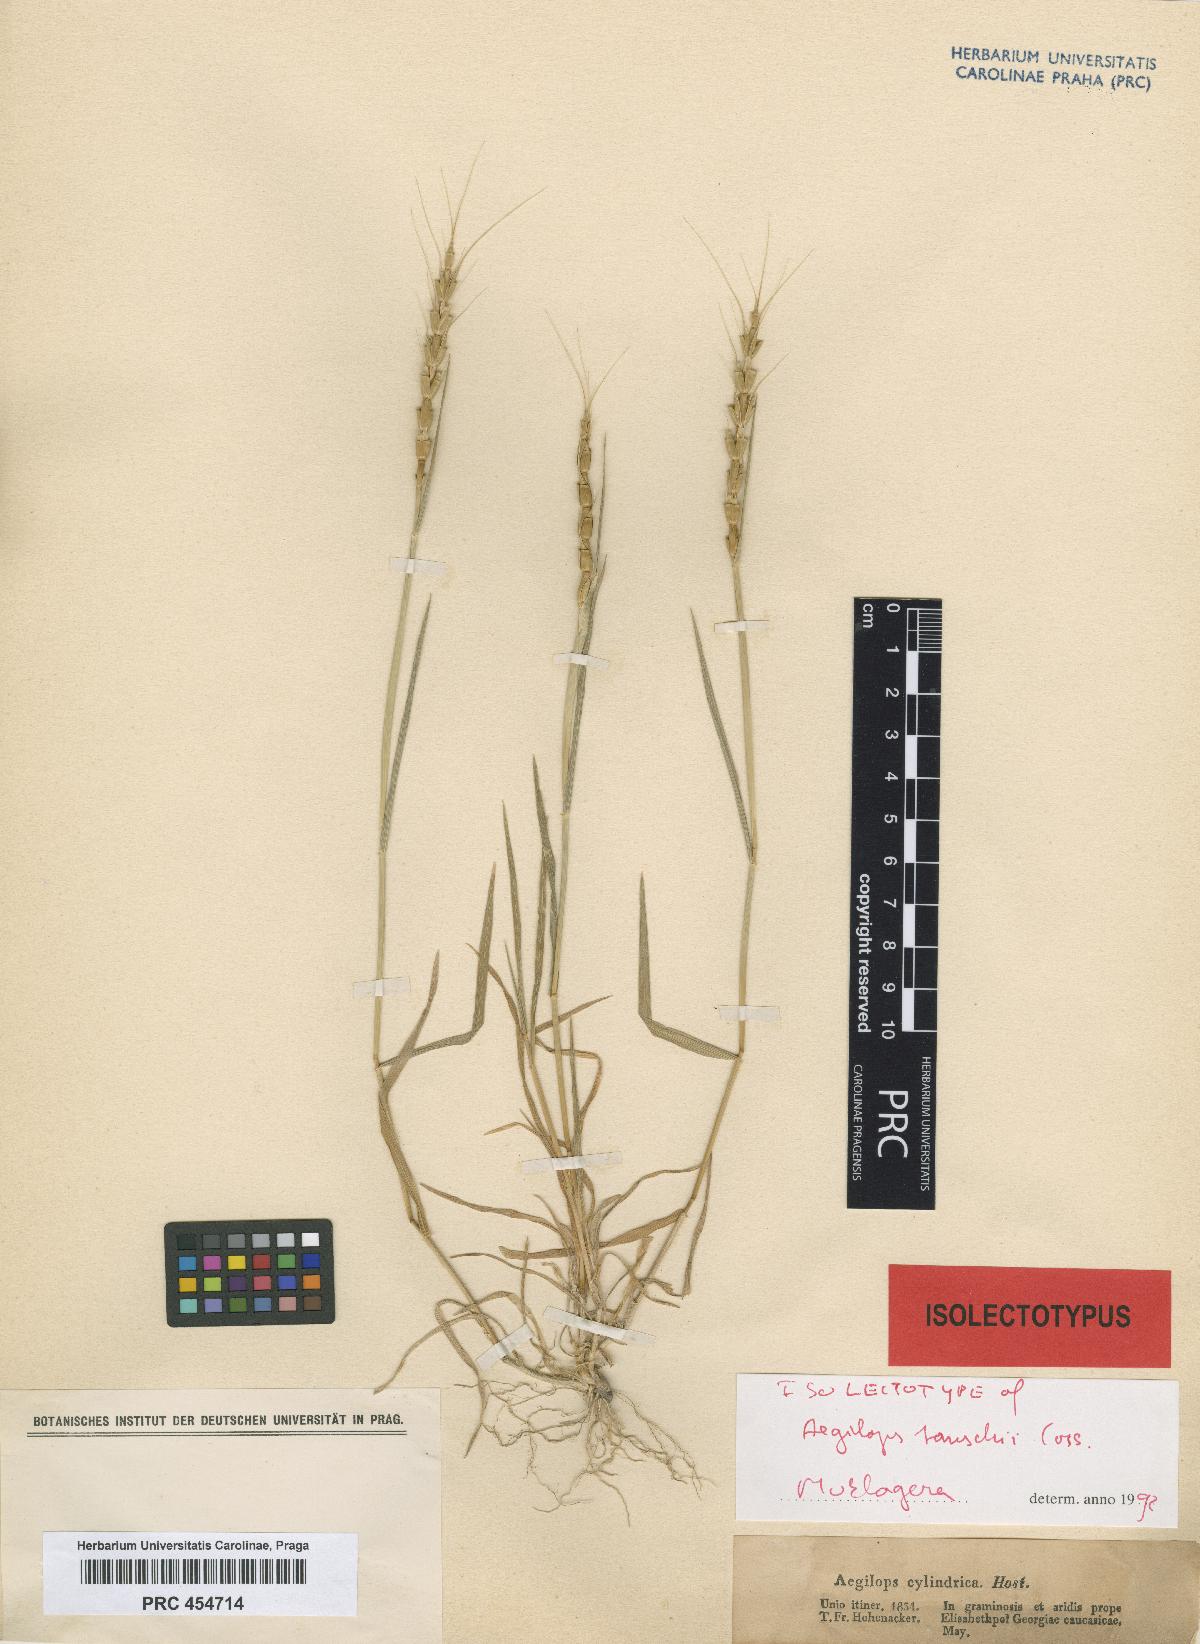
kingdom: Plantae
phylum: Tracheophyta
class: Liliopsida
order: Poales
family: Poaceae
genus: Aegilops
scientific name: Aegilops tauschii
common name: Rough-spike hard grass
